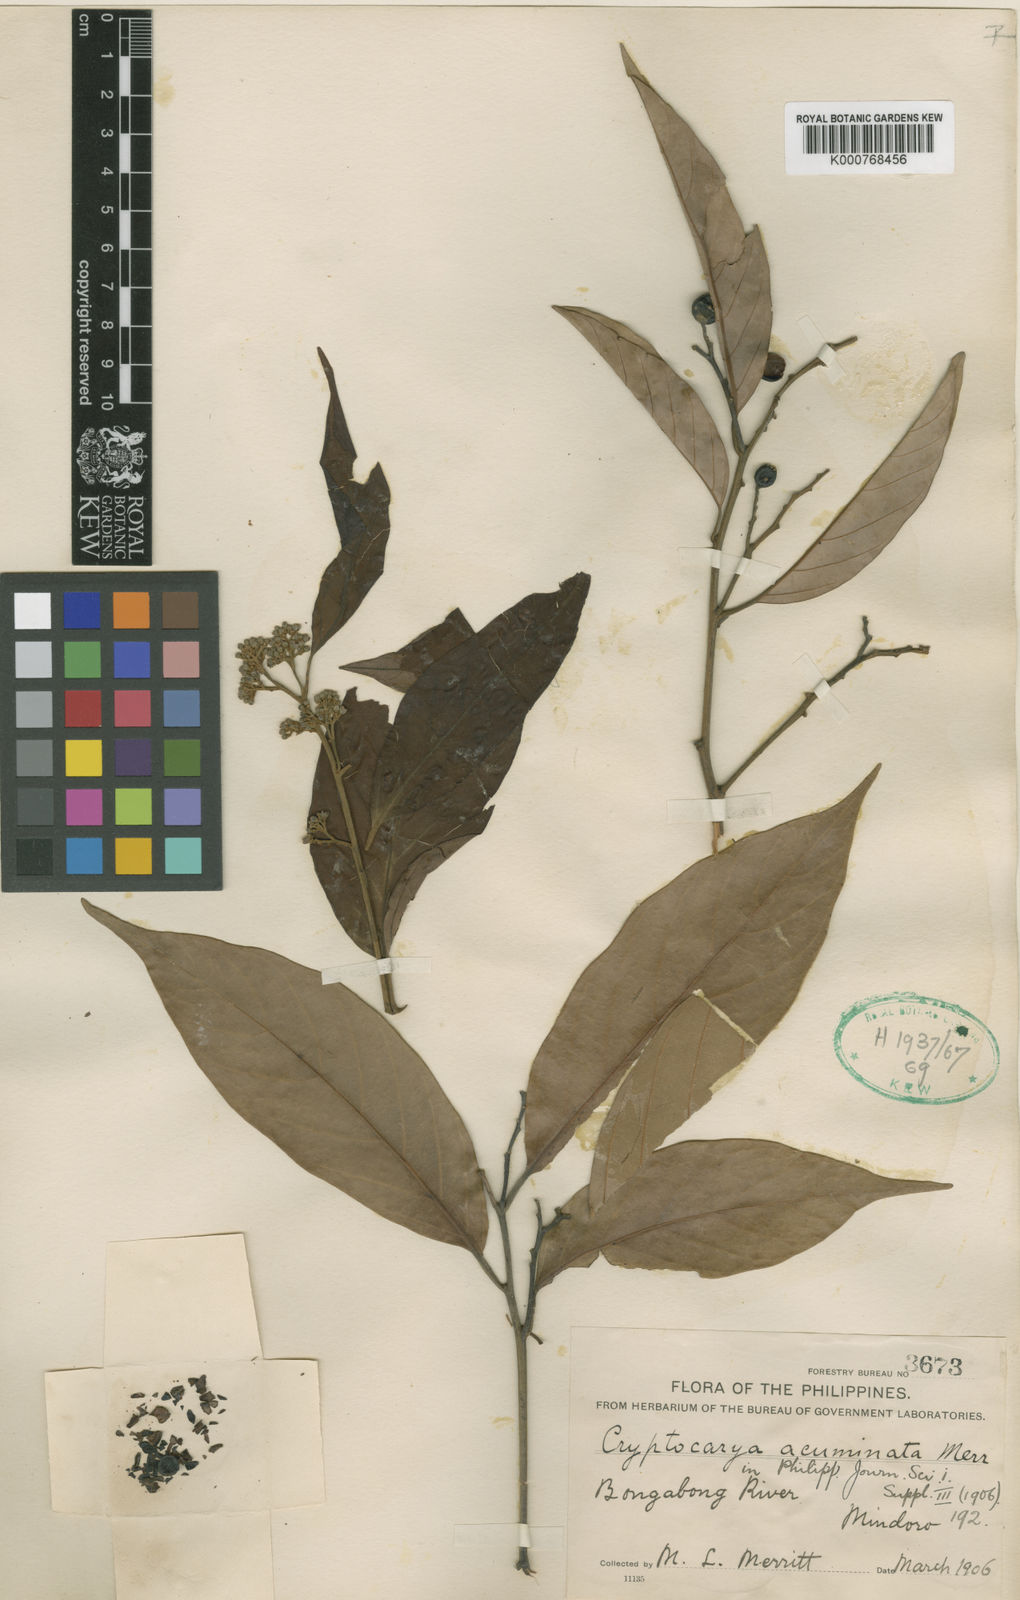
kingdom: Plantae
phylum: Tracheophyta
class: Magnoliopsida
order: Laurales
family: Lauraceae
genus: Cryptocarya
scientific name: Cryptocarya acuminata
